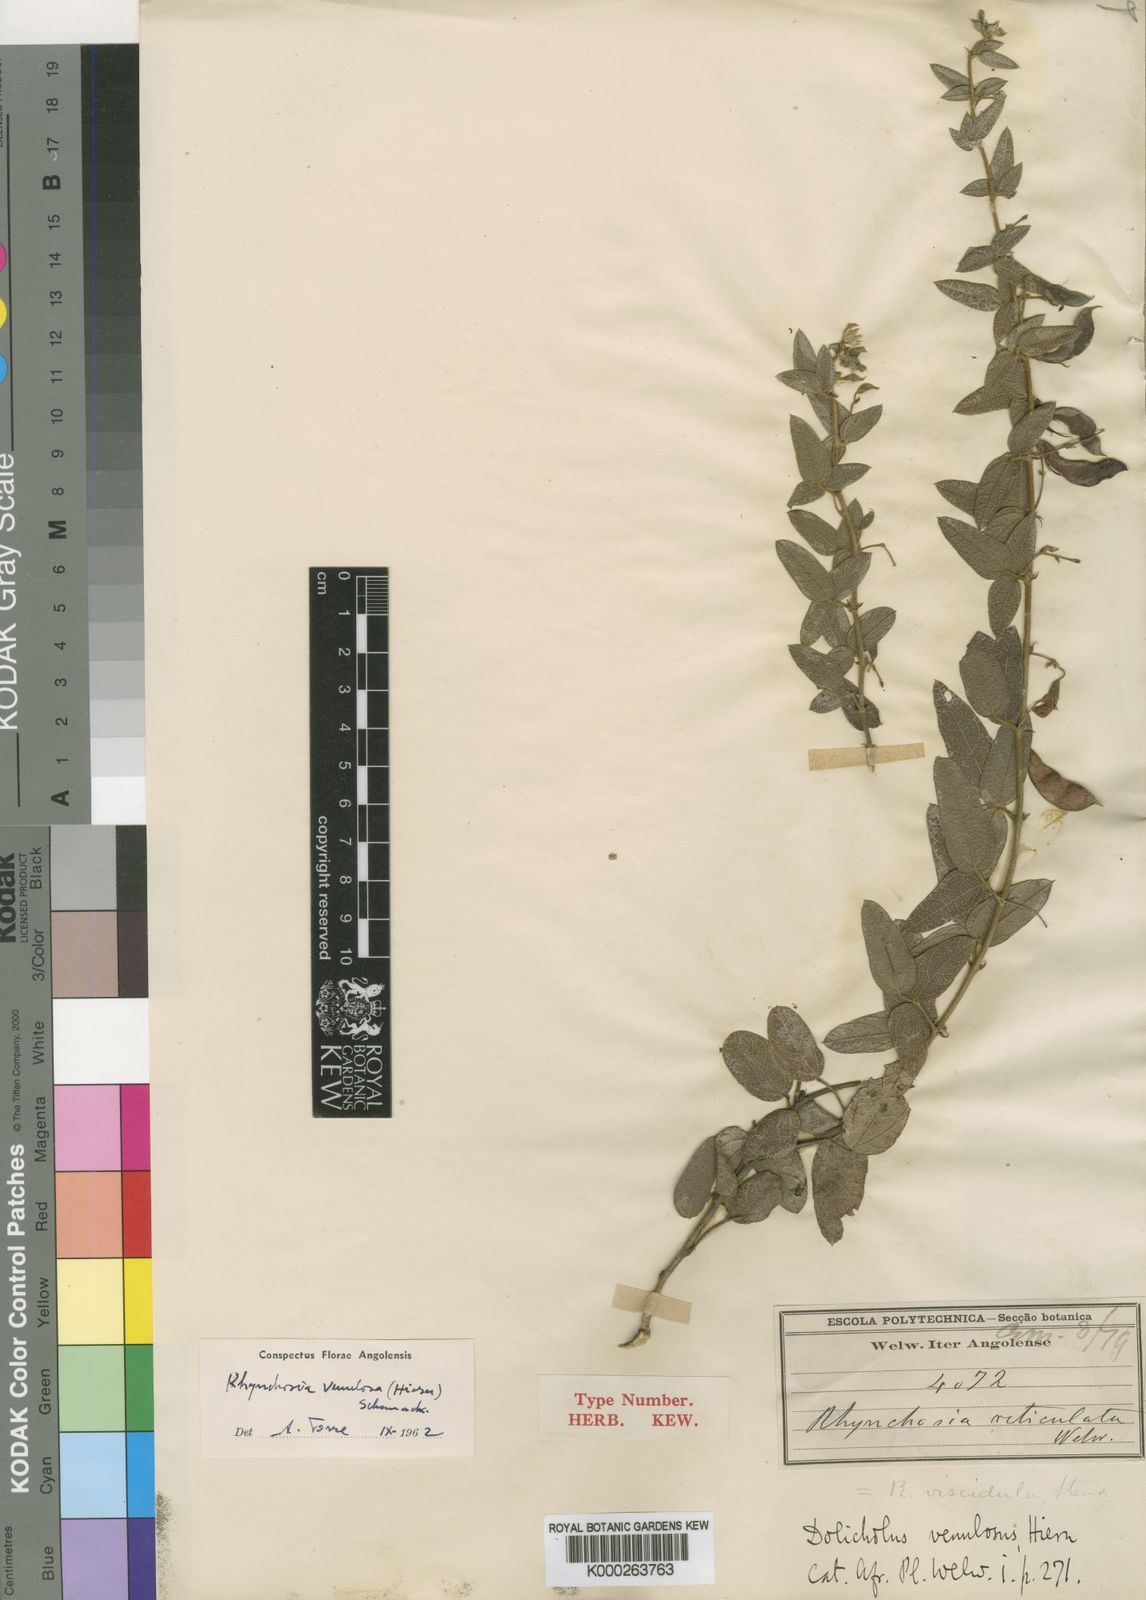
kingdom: Plantae
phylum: Tracheophyta
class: Magnoliopsida
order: Fabales
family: Fabaceae
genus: Rhynchosia
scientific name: Rhynchosia totta
